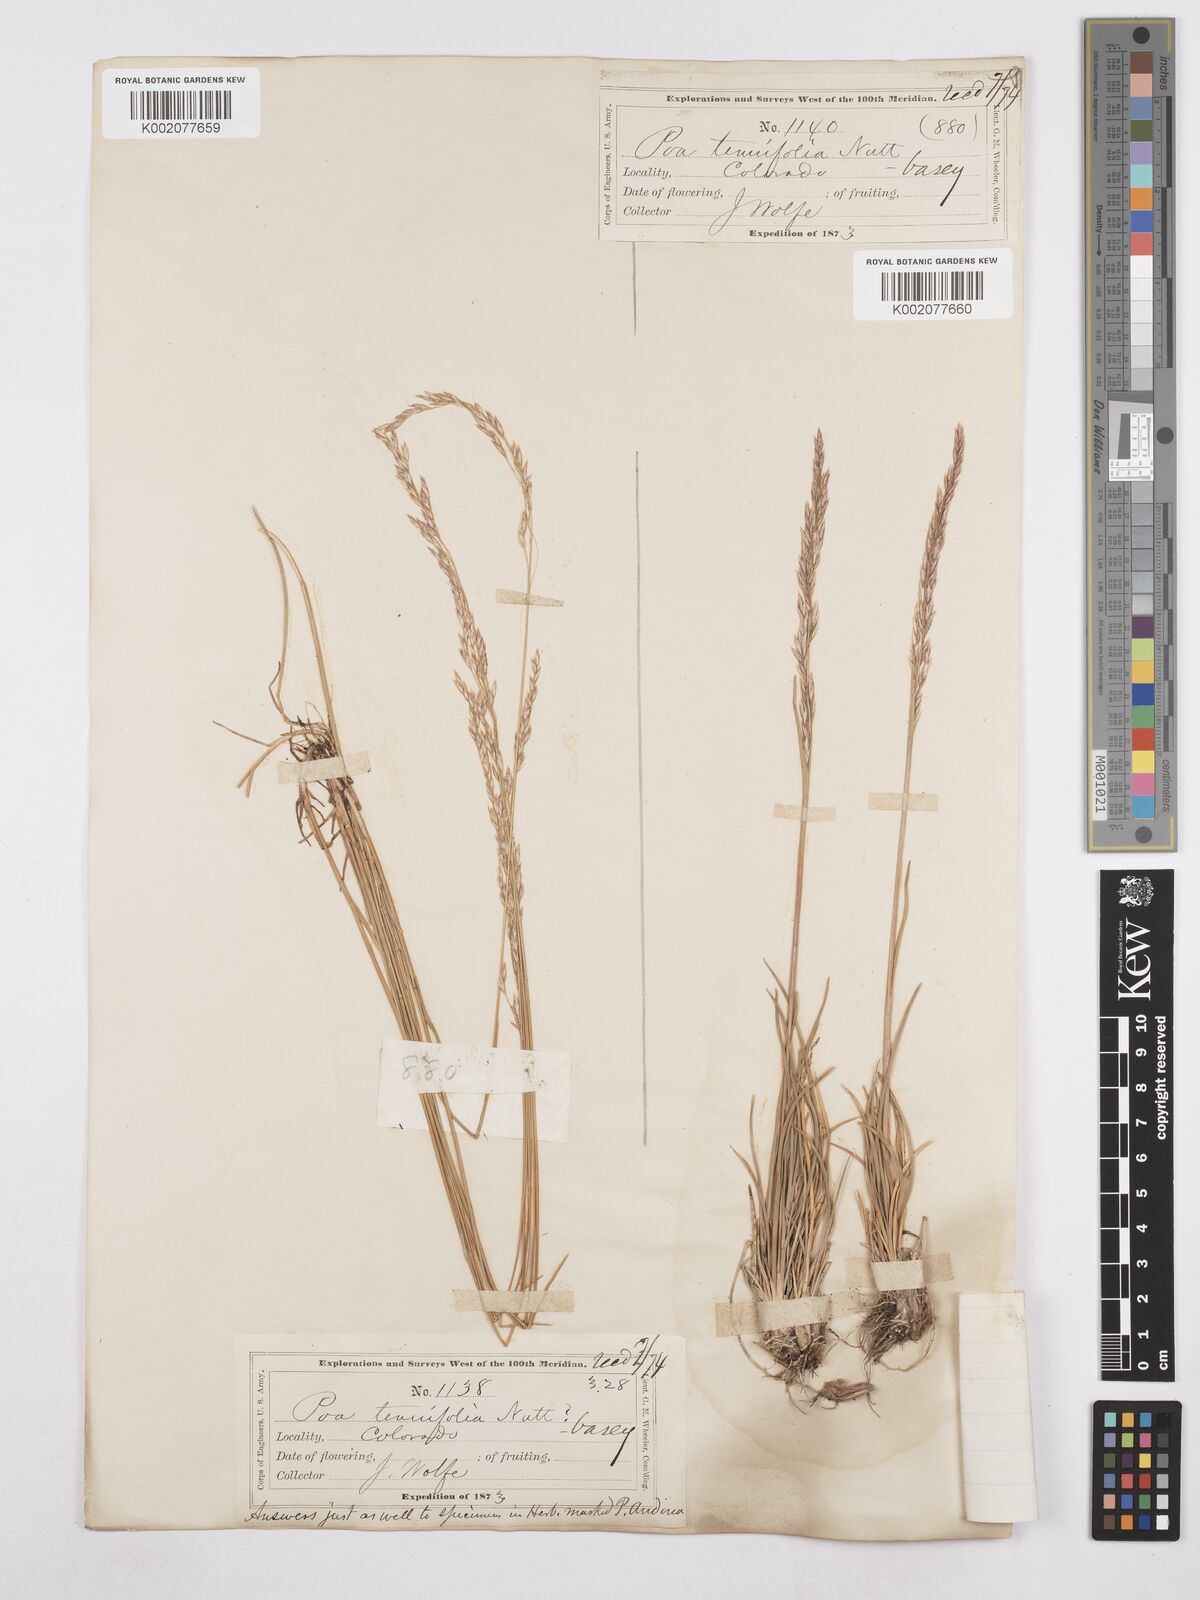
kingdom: Plantae
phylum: Tracheophyta
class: Liliopsida
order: Poales
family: Poaceae
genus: Poa
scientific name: Poa secunda
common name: Sandberg bluegrass
